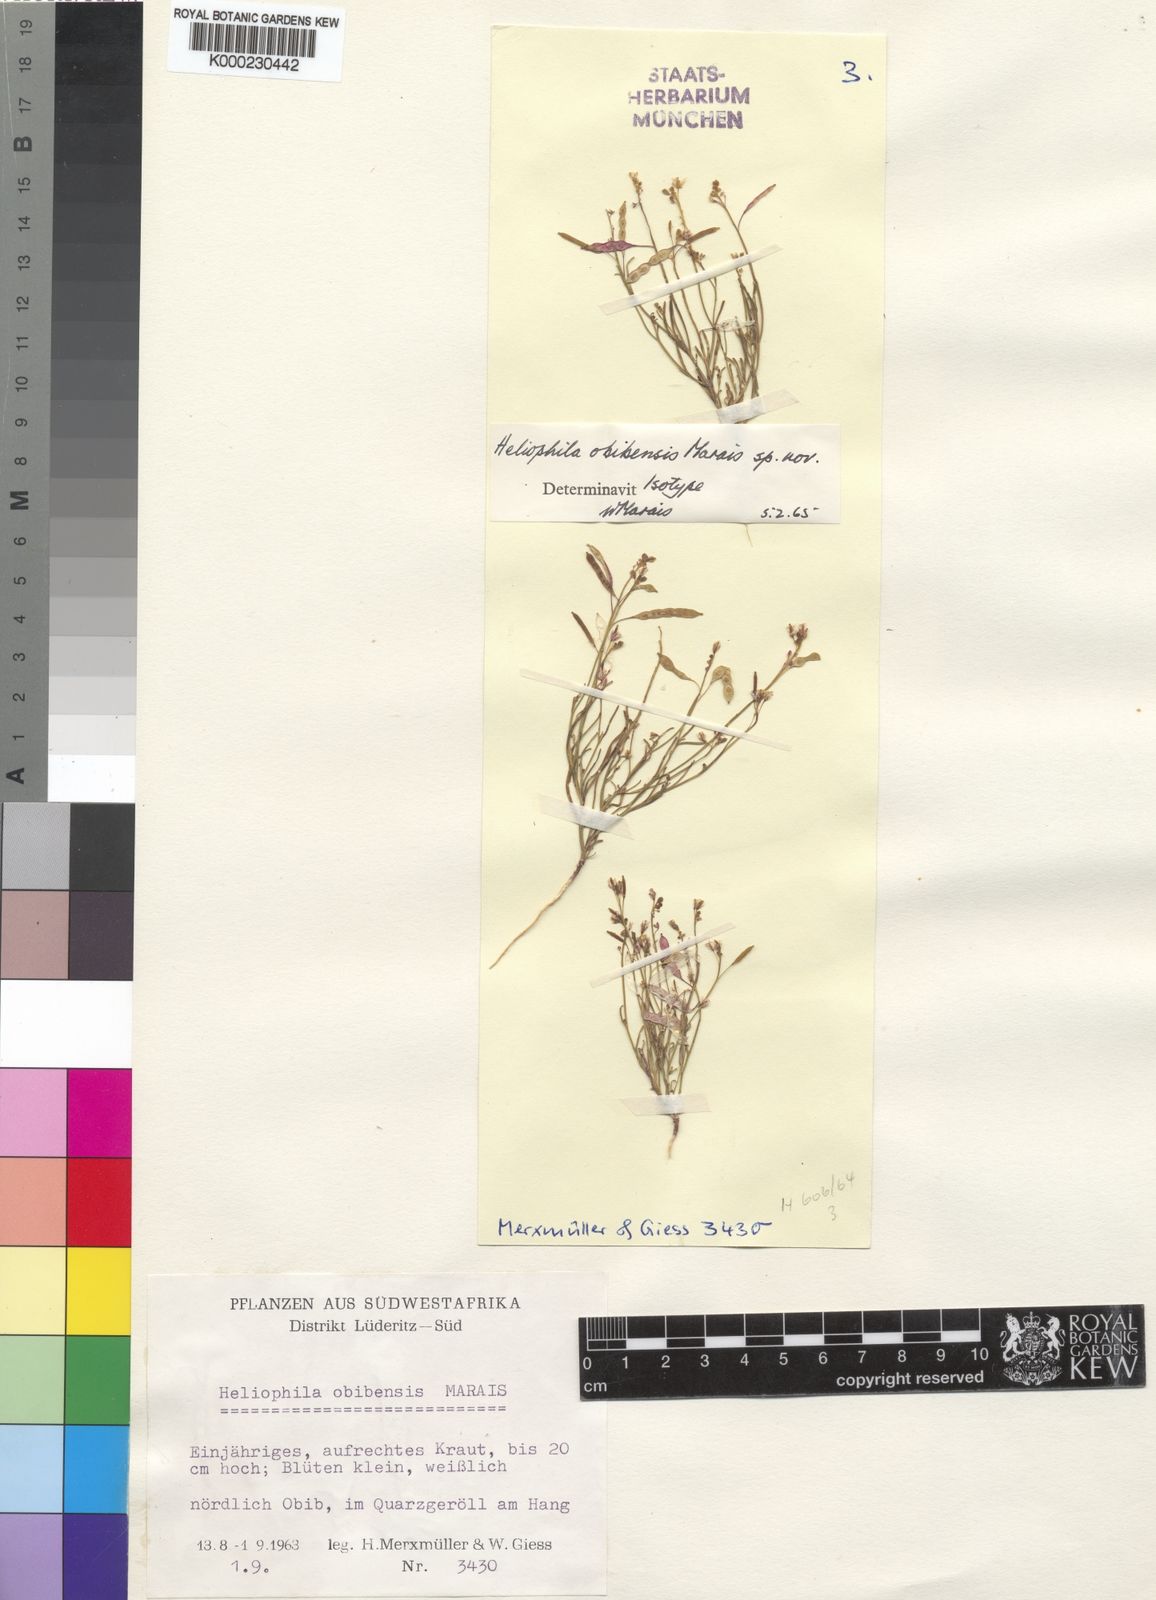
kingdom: Plantae
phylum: Tracheophyta
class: Magnoliopsida
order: Brassicales
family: Brassicaceae
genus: Heliophila
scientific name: Heliophila obibensis
